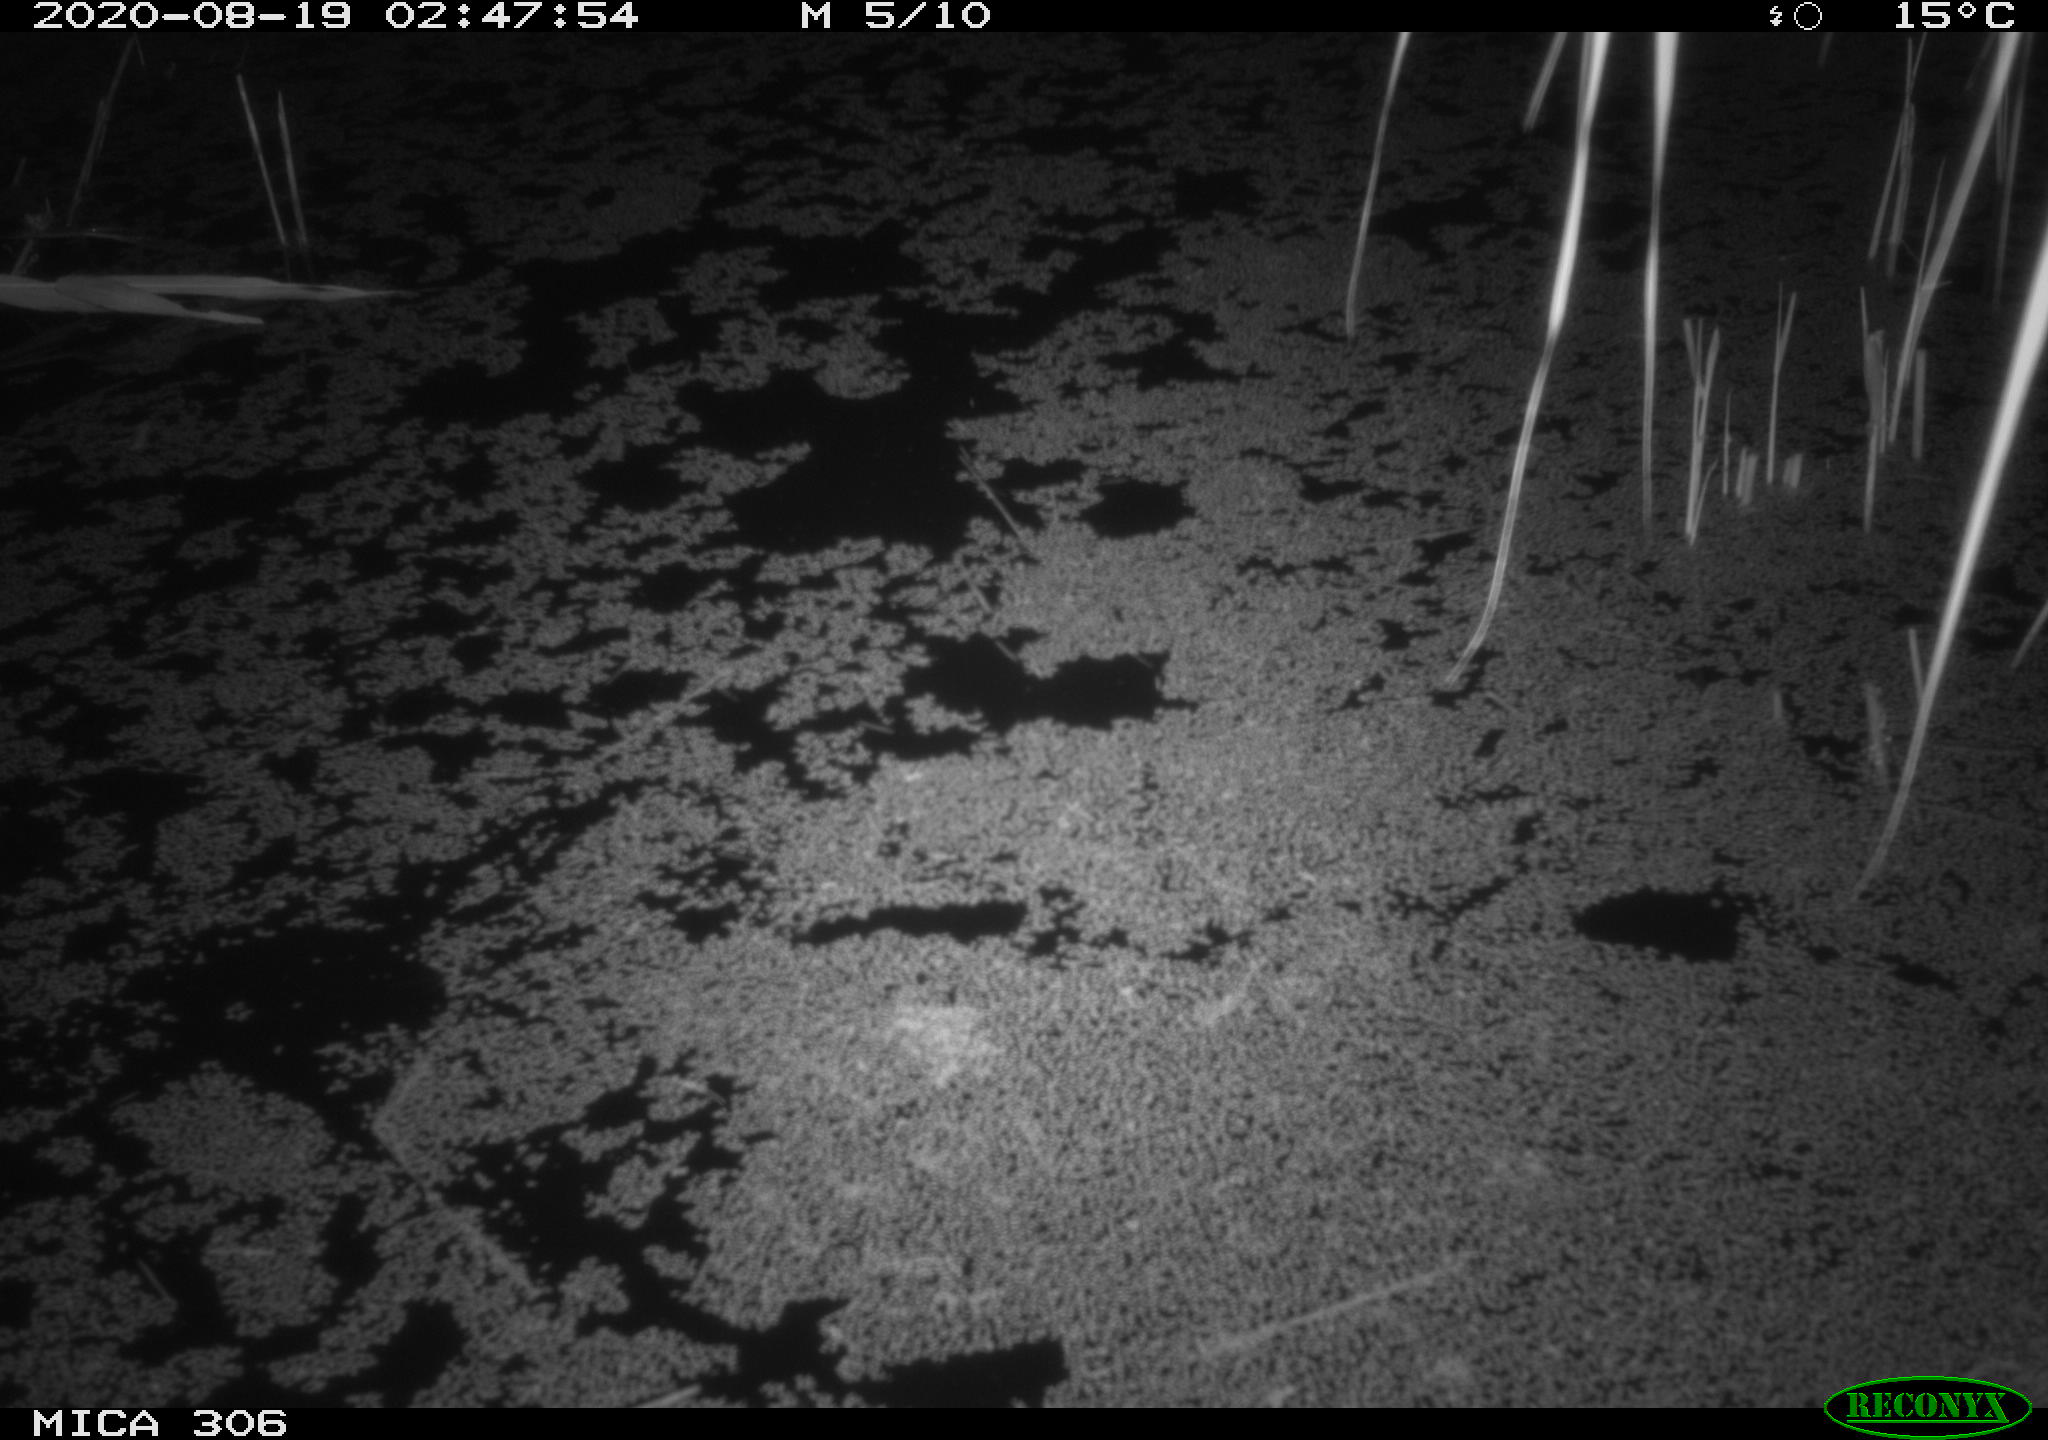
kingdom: Animalia
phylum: Chordata
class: Mammalia
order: Rodentia
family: Muridae
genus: Rattus
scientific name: Rattus norvegicus
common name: Brown rat
